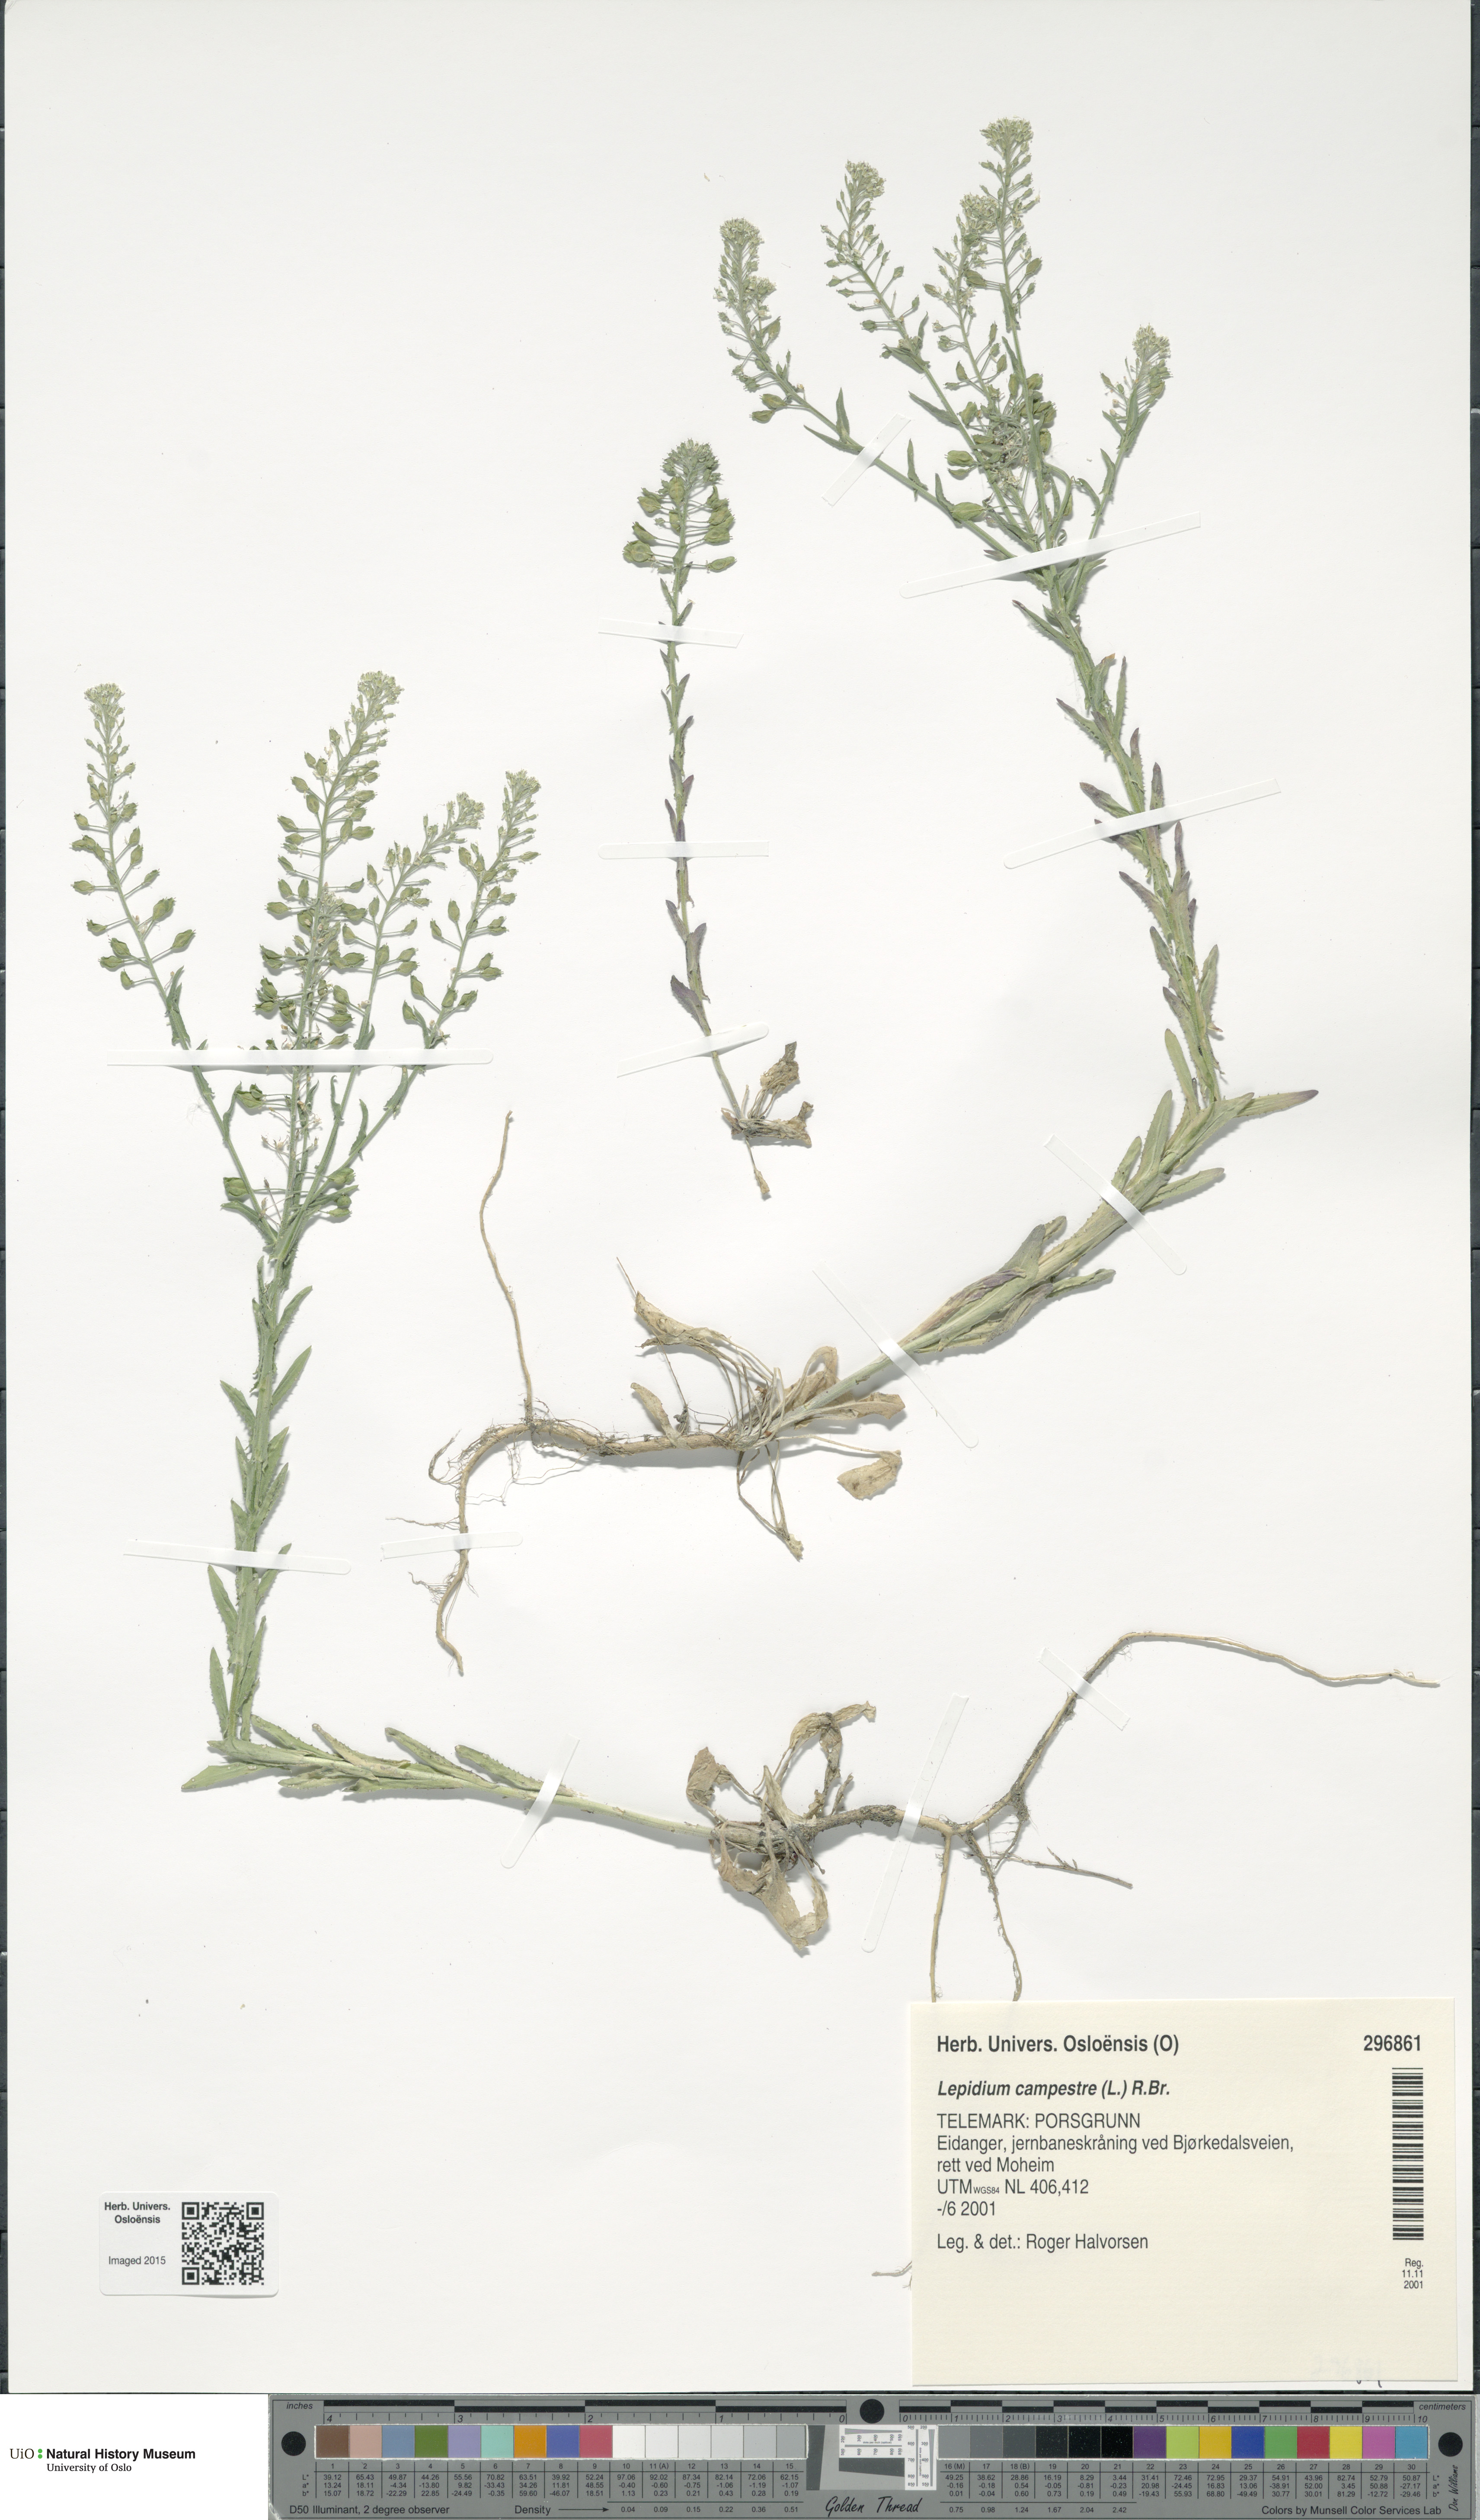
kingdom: Plantae
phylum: Tracheophyta
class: Magnoliopsida
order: Brassicales
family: Brassicaceae
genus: Lepidium
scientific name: Lepidium campestre
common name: Field pepperwort
